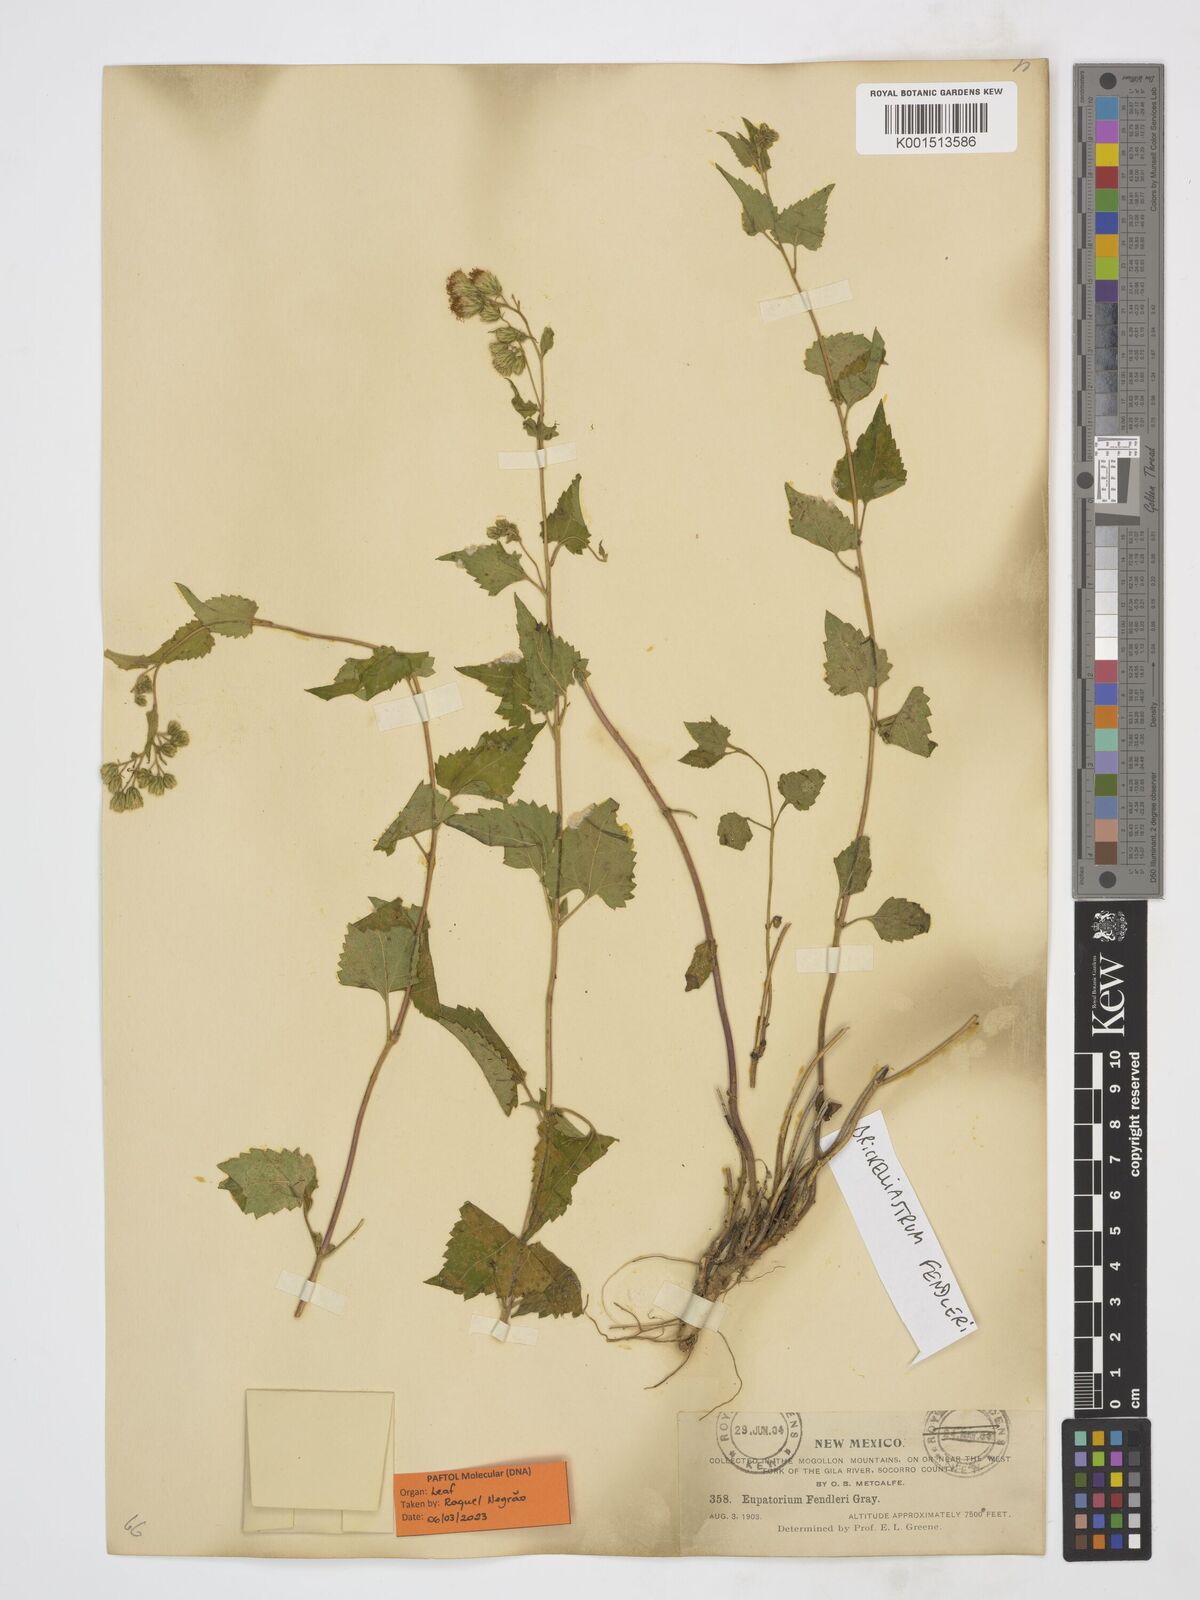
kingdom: Plantae
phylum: Tracheophyta
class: Magnoliopsida
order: Asterales
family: Asteraceae
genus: Brickelliastrum
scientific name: Brickelliastrum fendleri
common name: Fendler's-brickellbush
